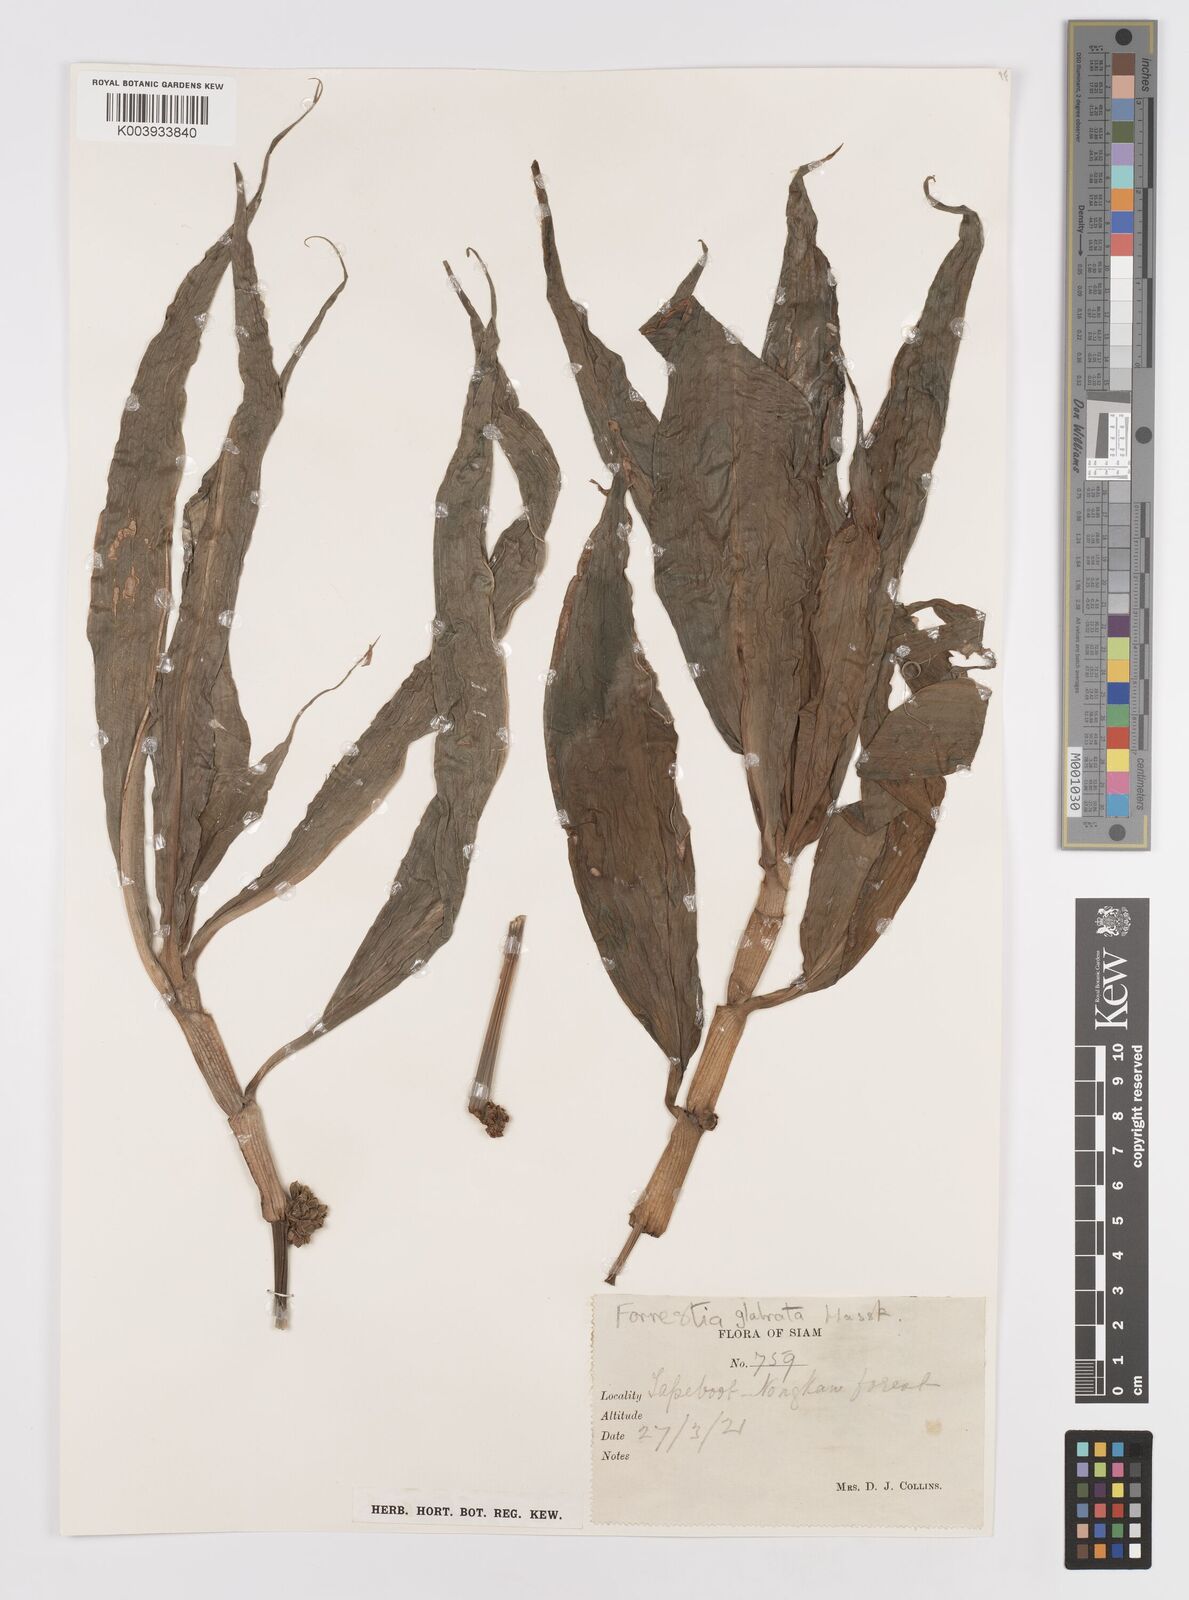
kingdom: Plantae
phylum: Tracheophyta
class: Liliopsida
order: Commelinales
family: Commelinaceae
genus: Amischotolype
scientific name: Amischotolype glabrata
